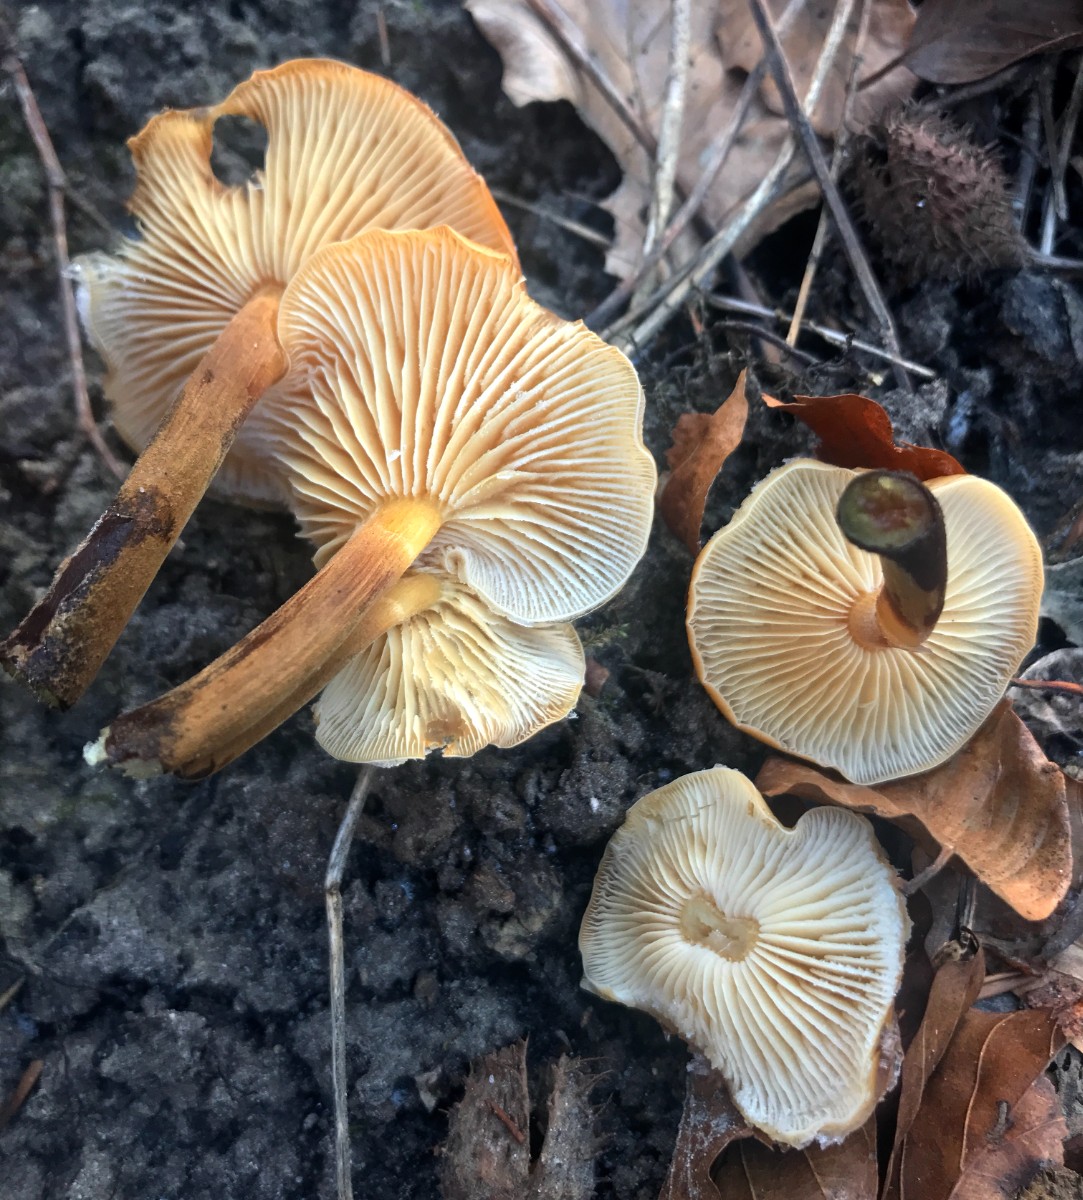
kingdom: Fungi
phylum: Basidiomycota
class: Agaricomycetes
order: Agaricales
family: Physalacriaceae
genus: Flammulina
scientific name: Flammulina velutipes
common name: gul fløjlsfod
